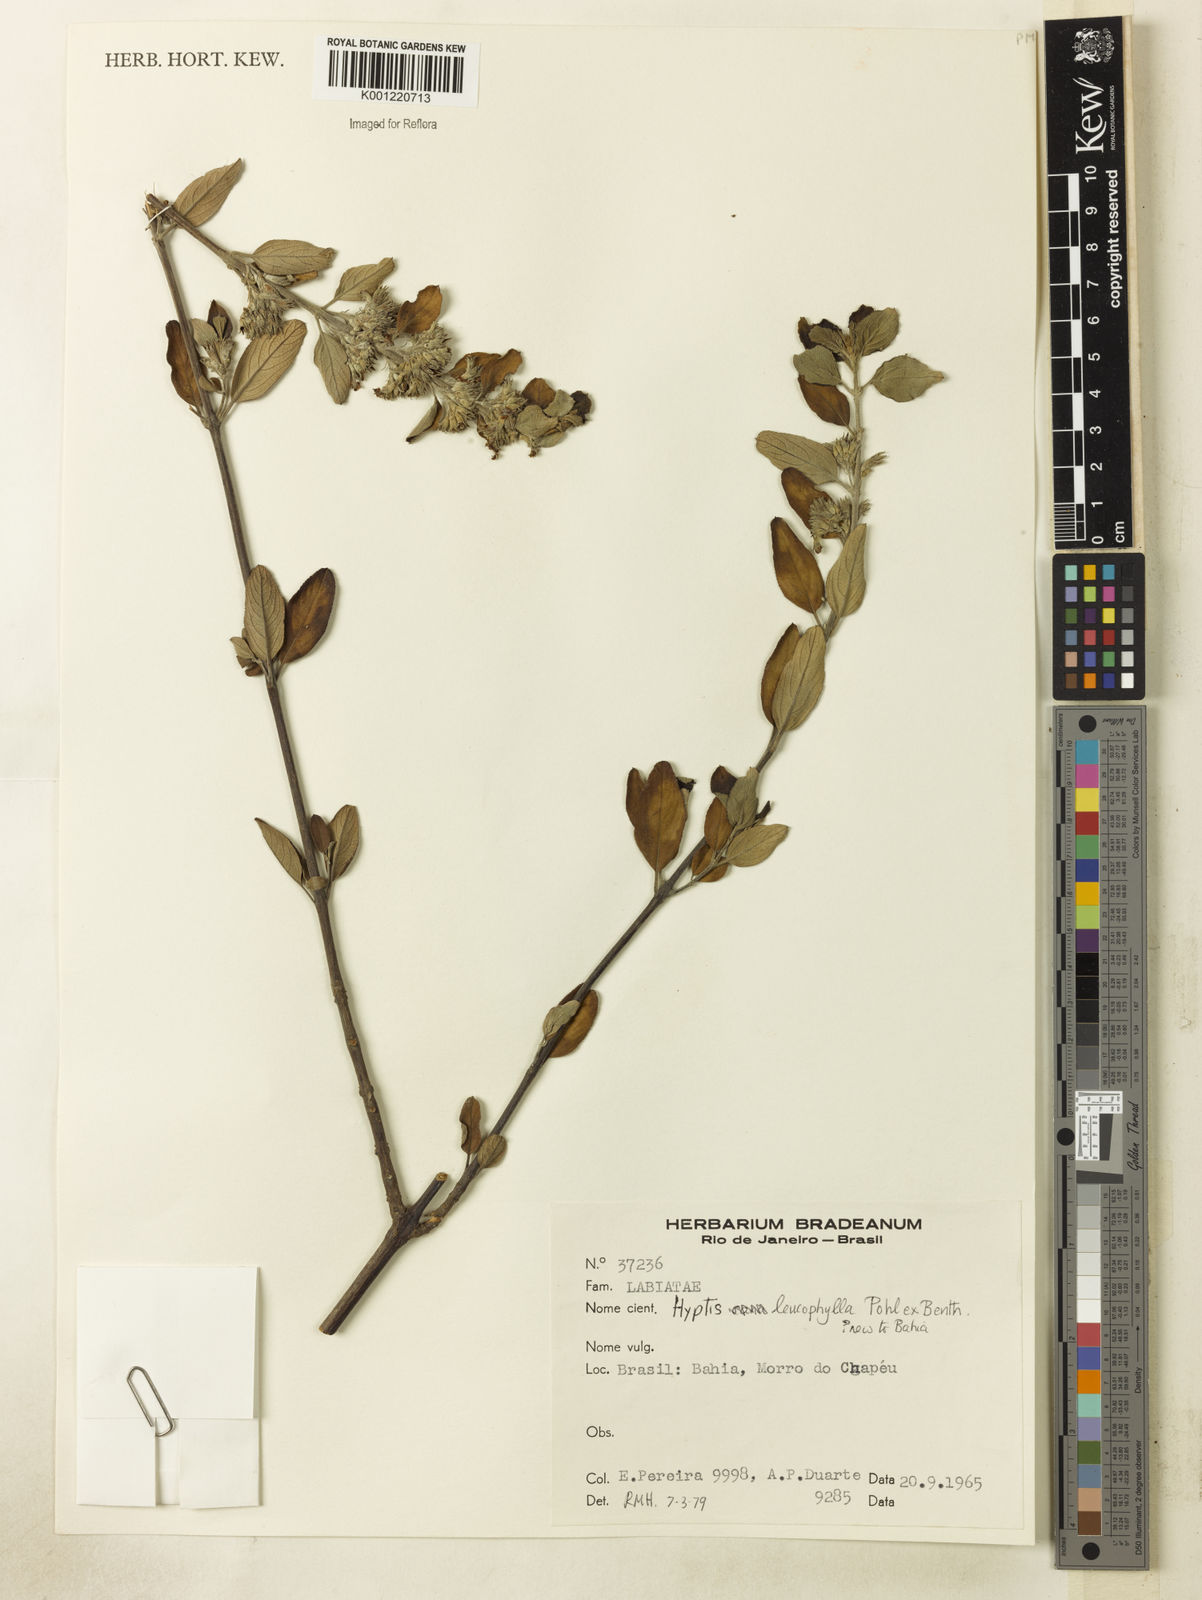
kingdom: Plantae
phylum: Tracheophyta
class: Magnoliopsida
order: Lamiales
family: Lamiaceae
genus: Hyptidendron
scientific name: Hyptidendron leucophyllum
